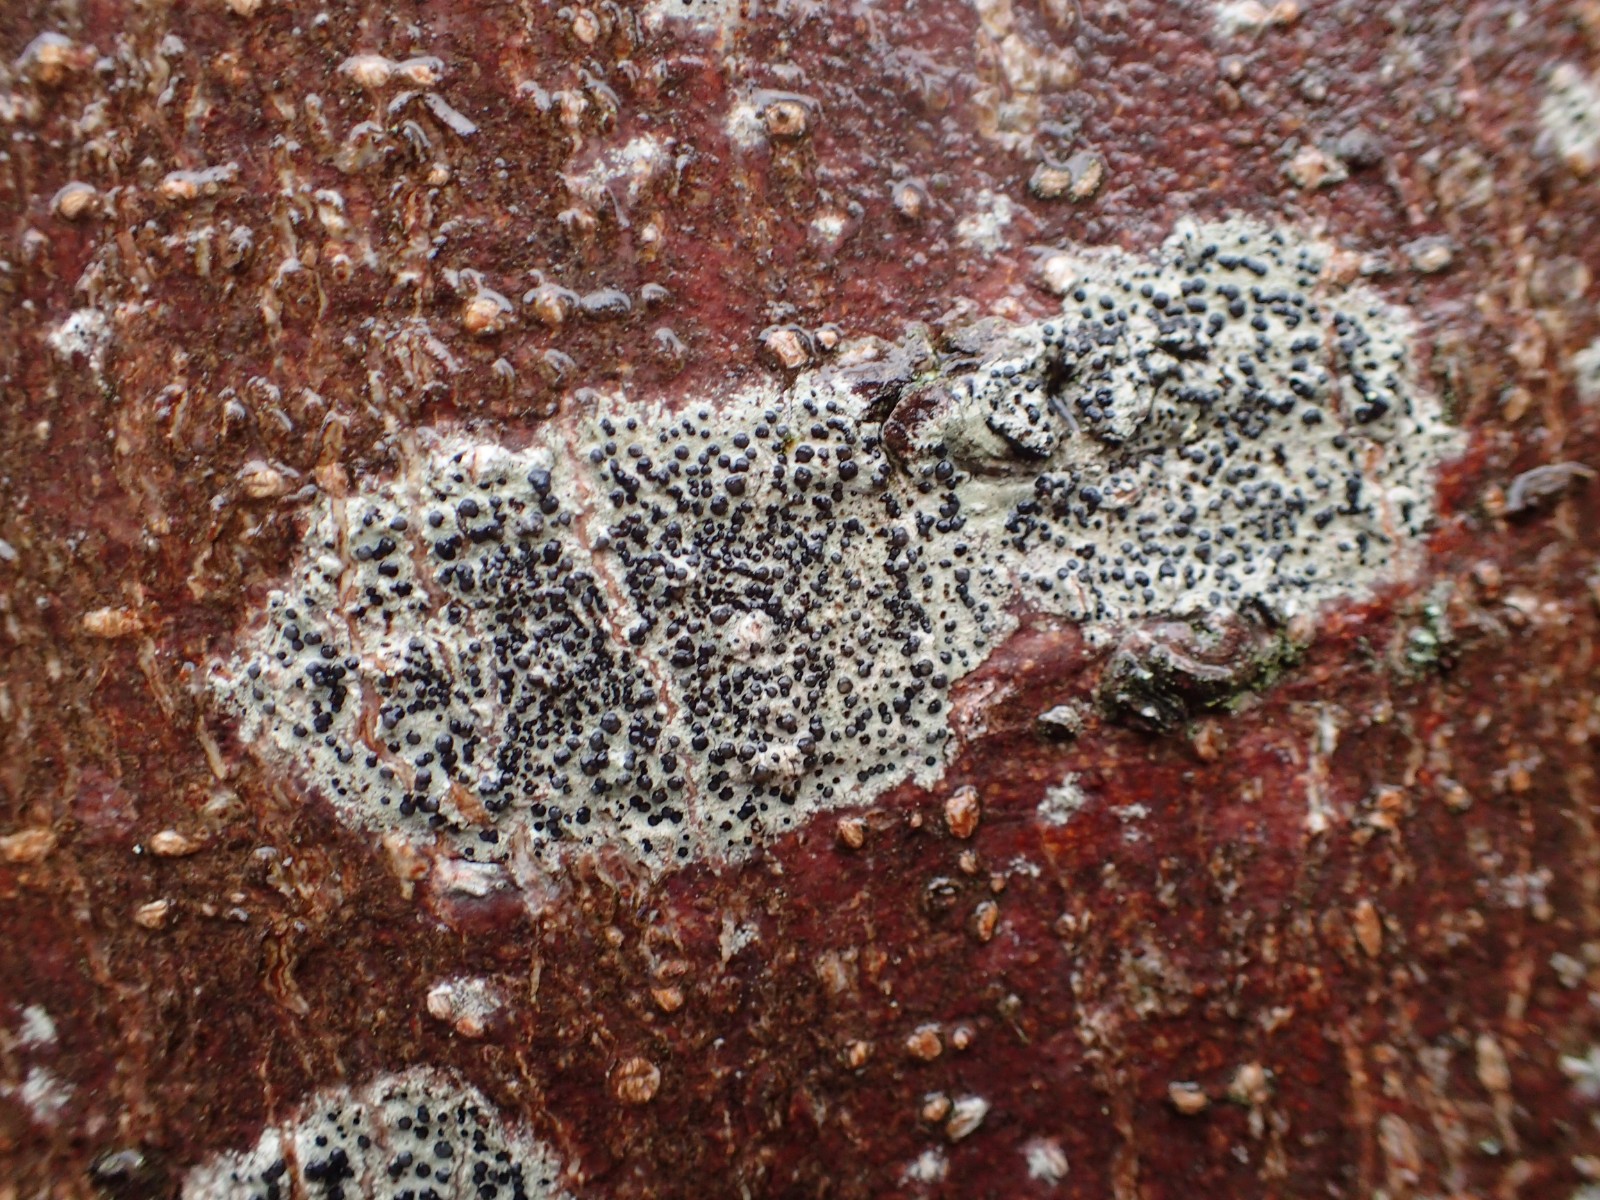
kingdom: Fungi
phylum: Ascomycota
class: Lecanoromycetes
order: Lecanorales
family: Lecanoraceae
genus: Lecidella
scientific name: Lecidella elaeochroma
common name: grågrøn skivelav
